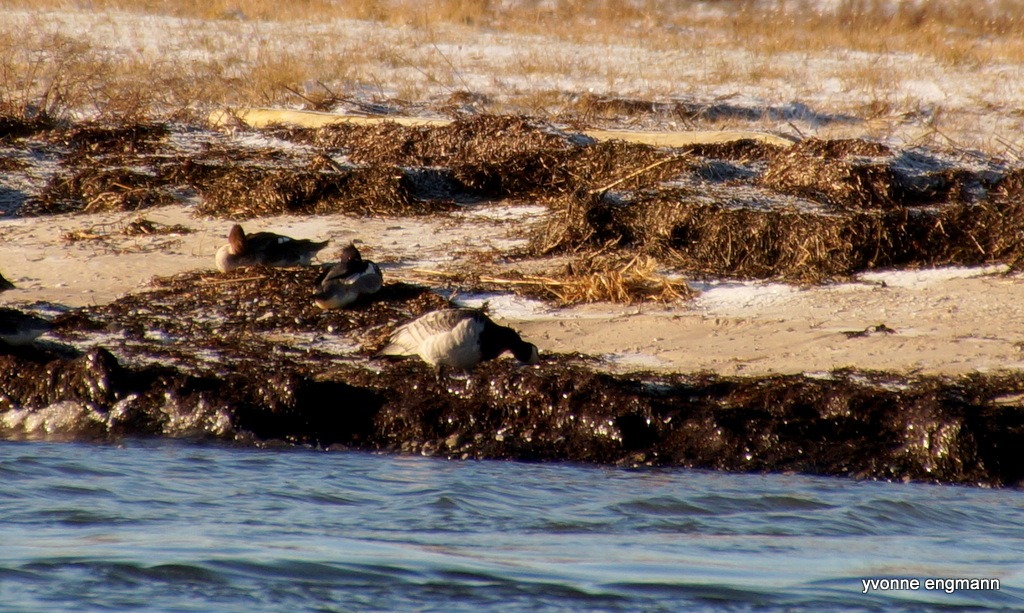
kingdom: Animalia
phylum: Chordata
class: Aves
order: Anseriformes
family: Anatidae
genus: Branta
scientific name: Branta leucopsis
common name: Bramgås
